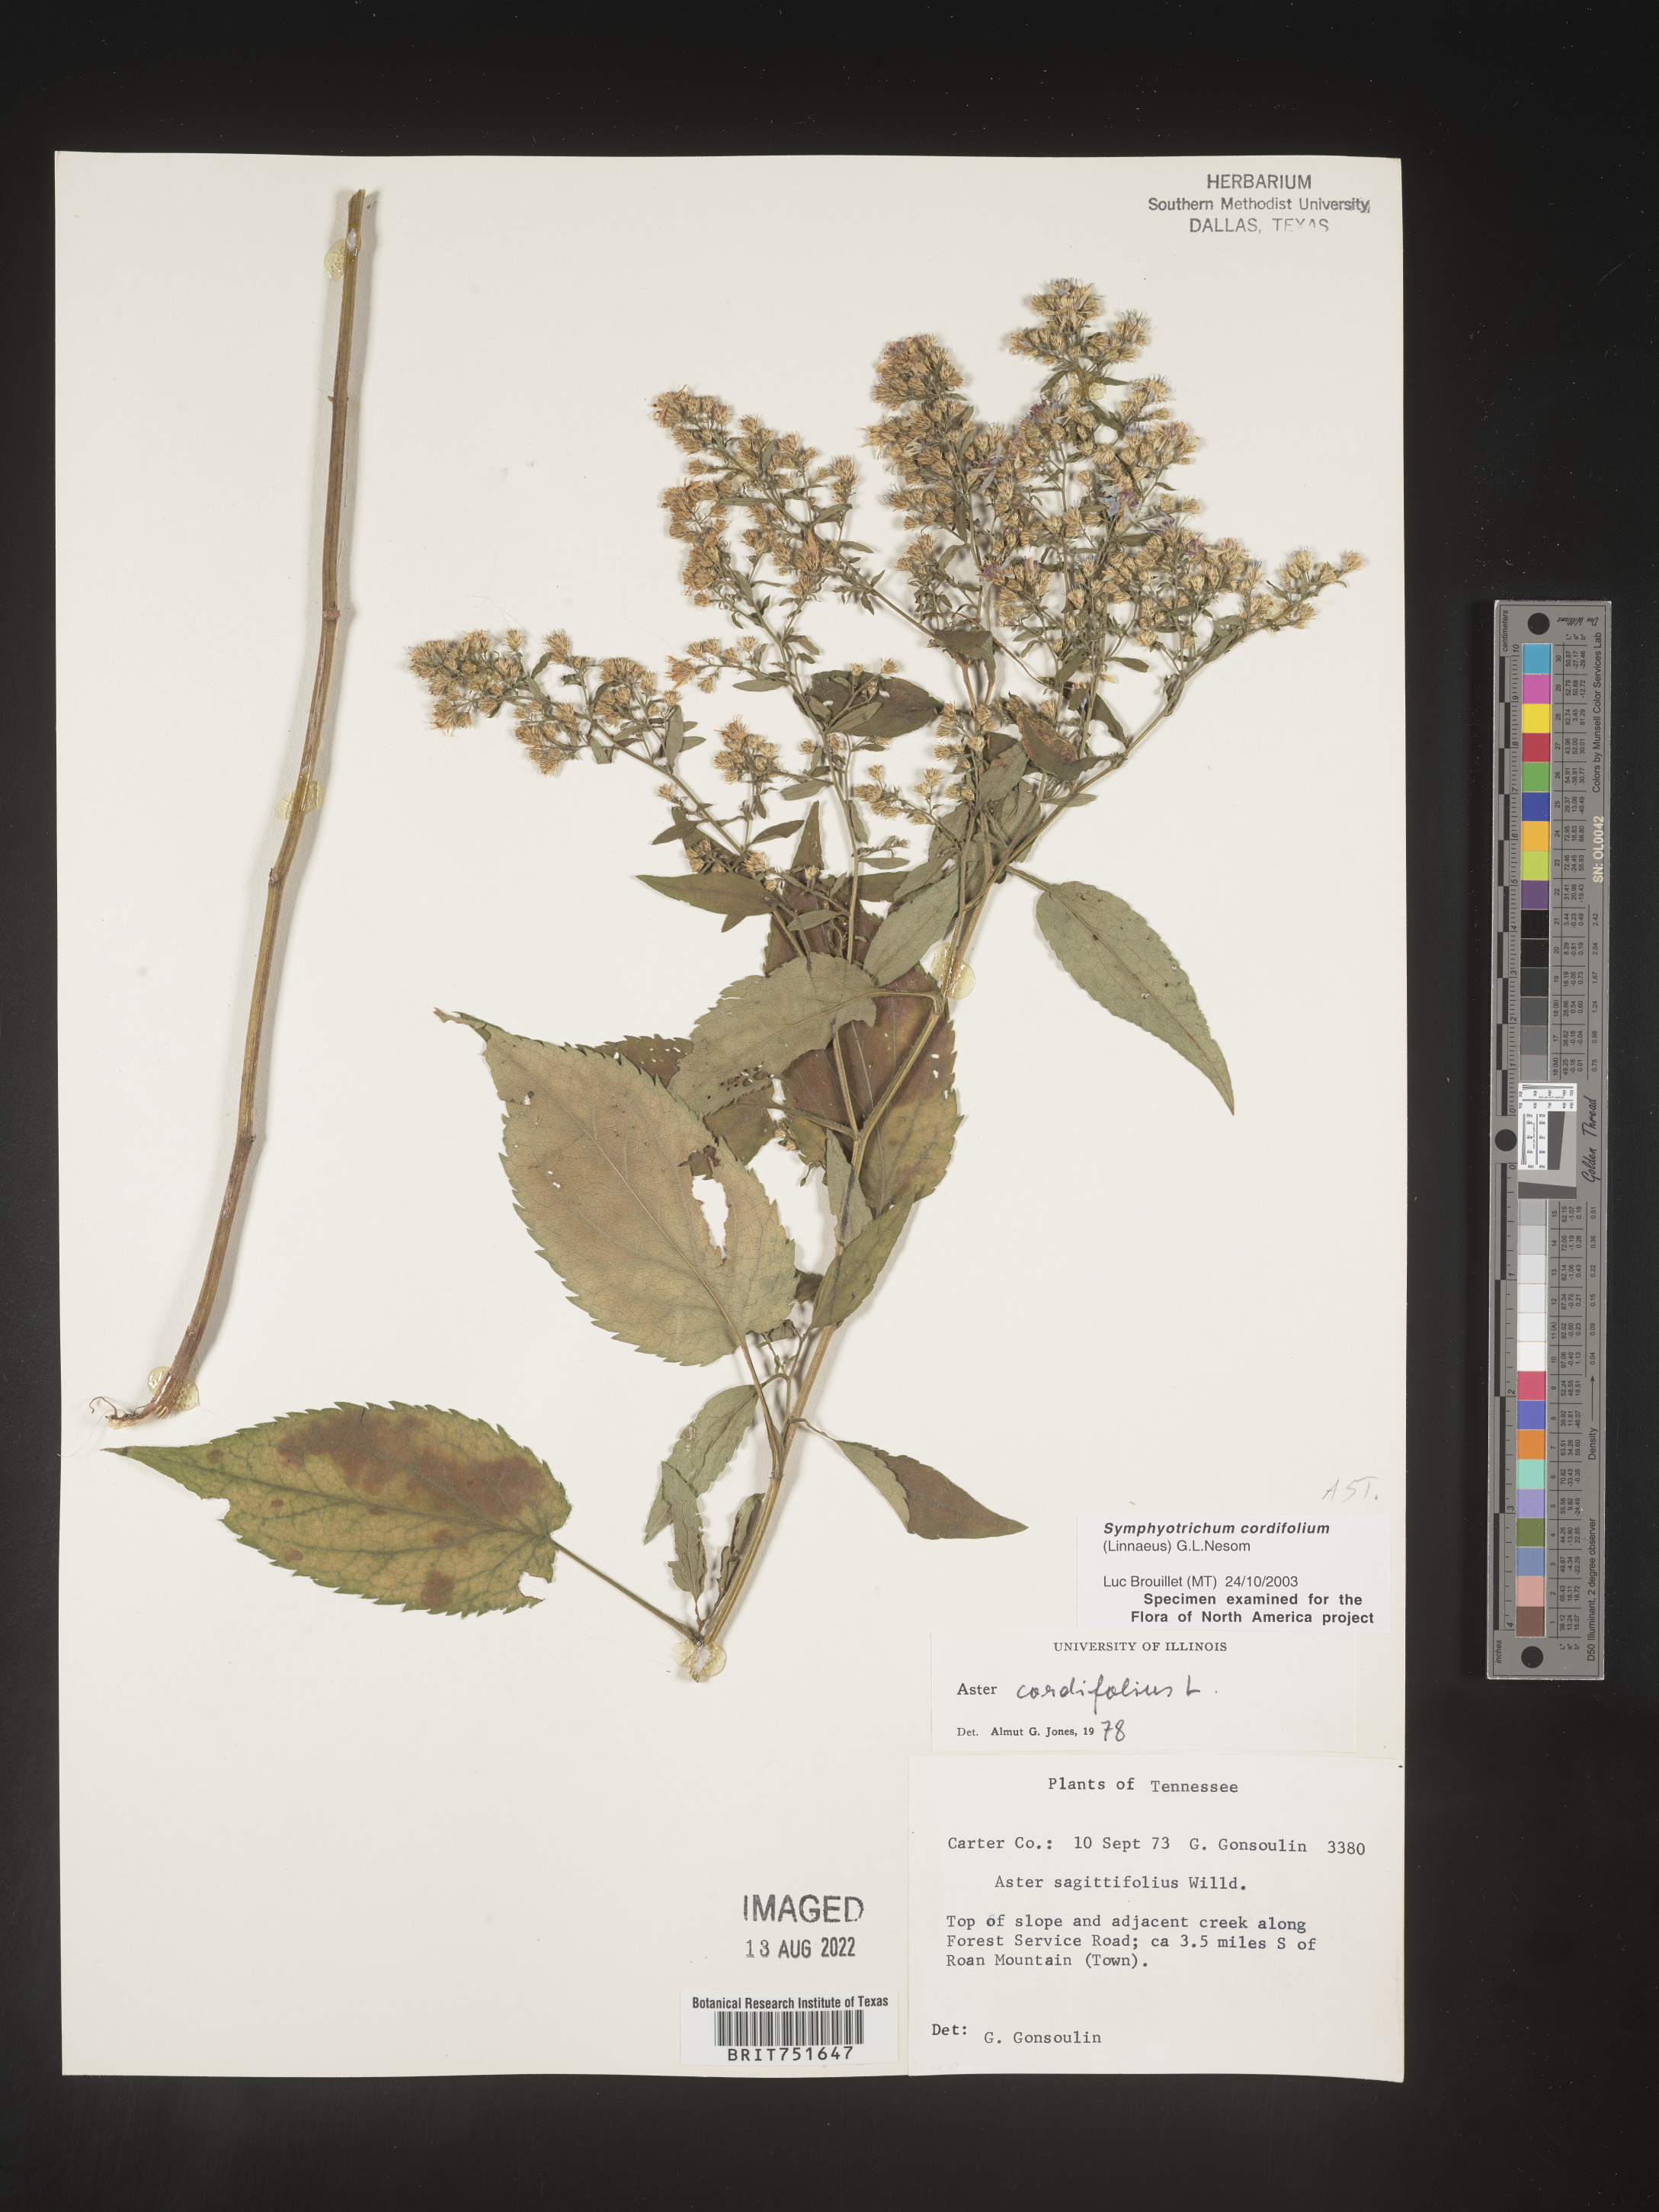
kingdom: Plantae
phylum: Tracheophyta
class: Magnoliopsida
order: Asterales
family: Asteraceae
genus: Symphyotrichum
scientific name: Symphyotrichum cordifolium
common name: Beeweed
